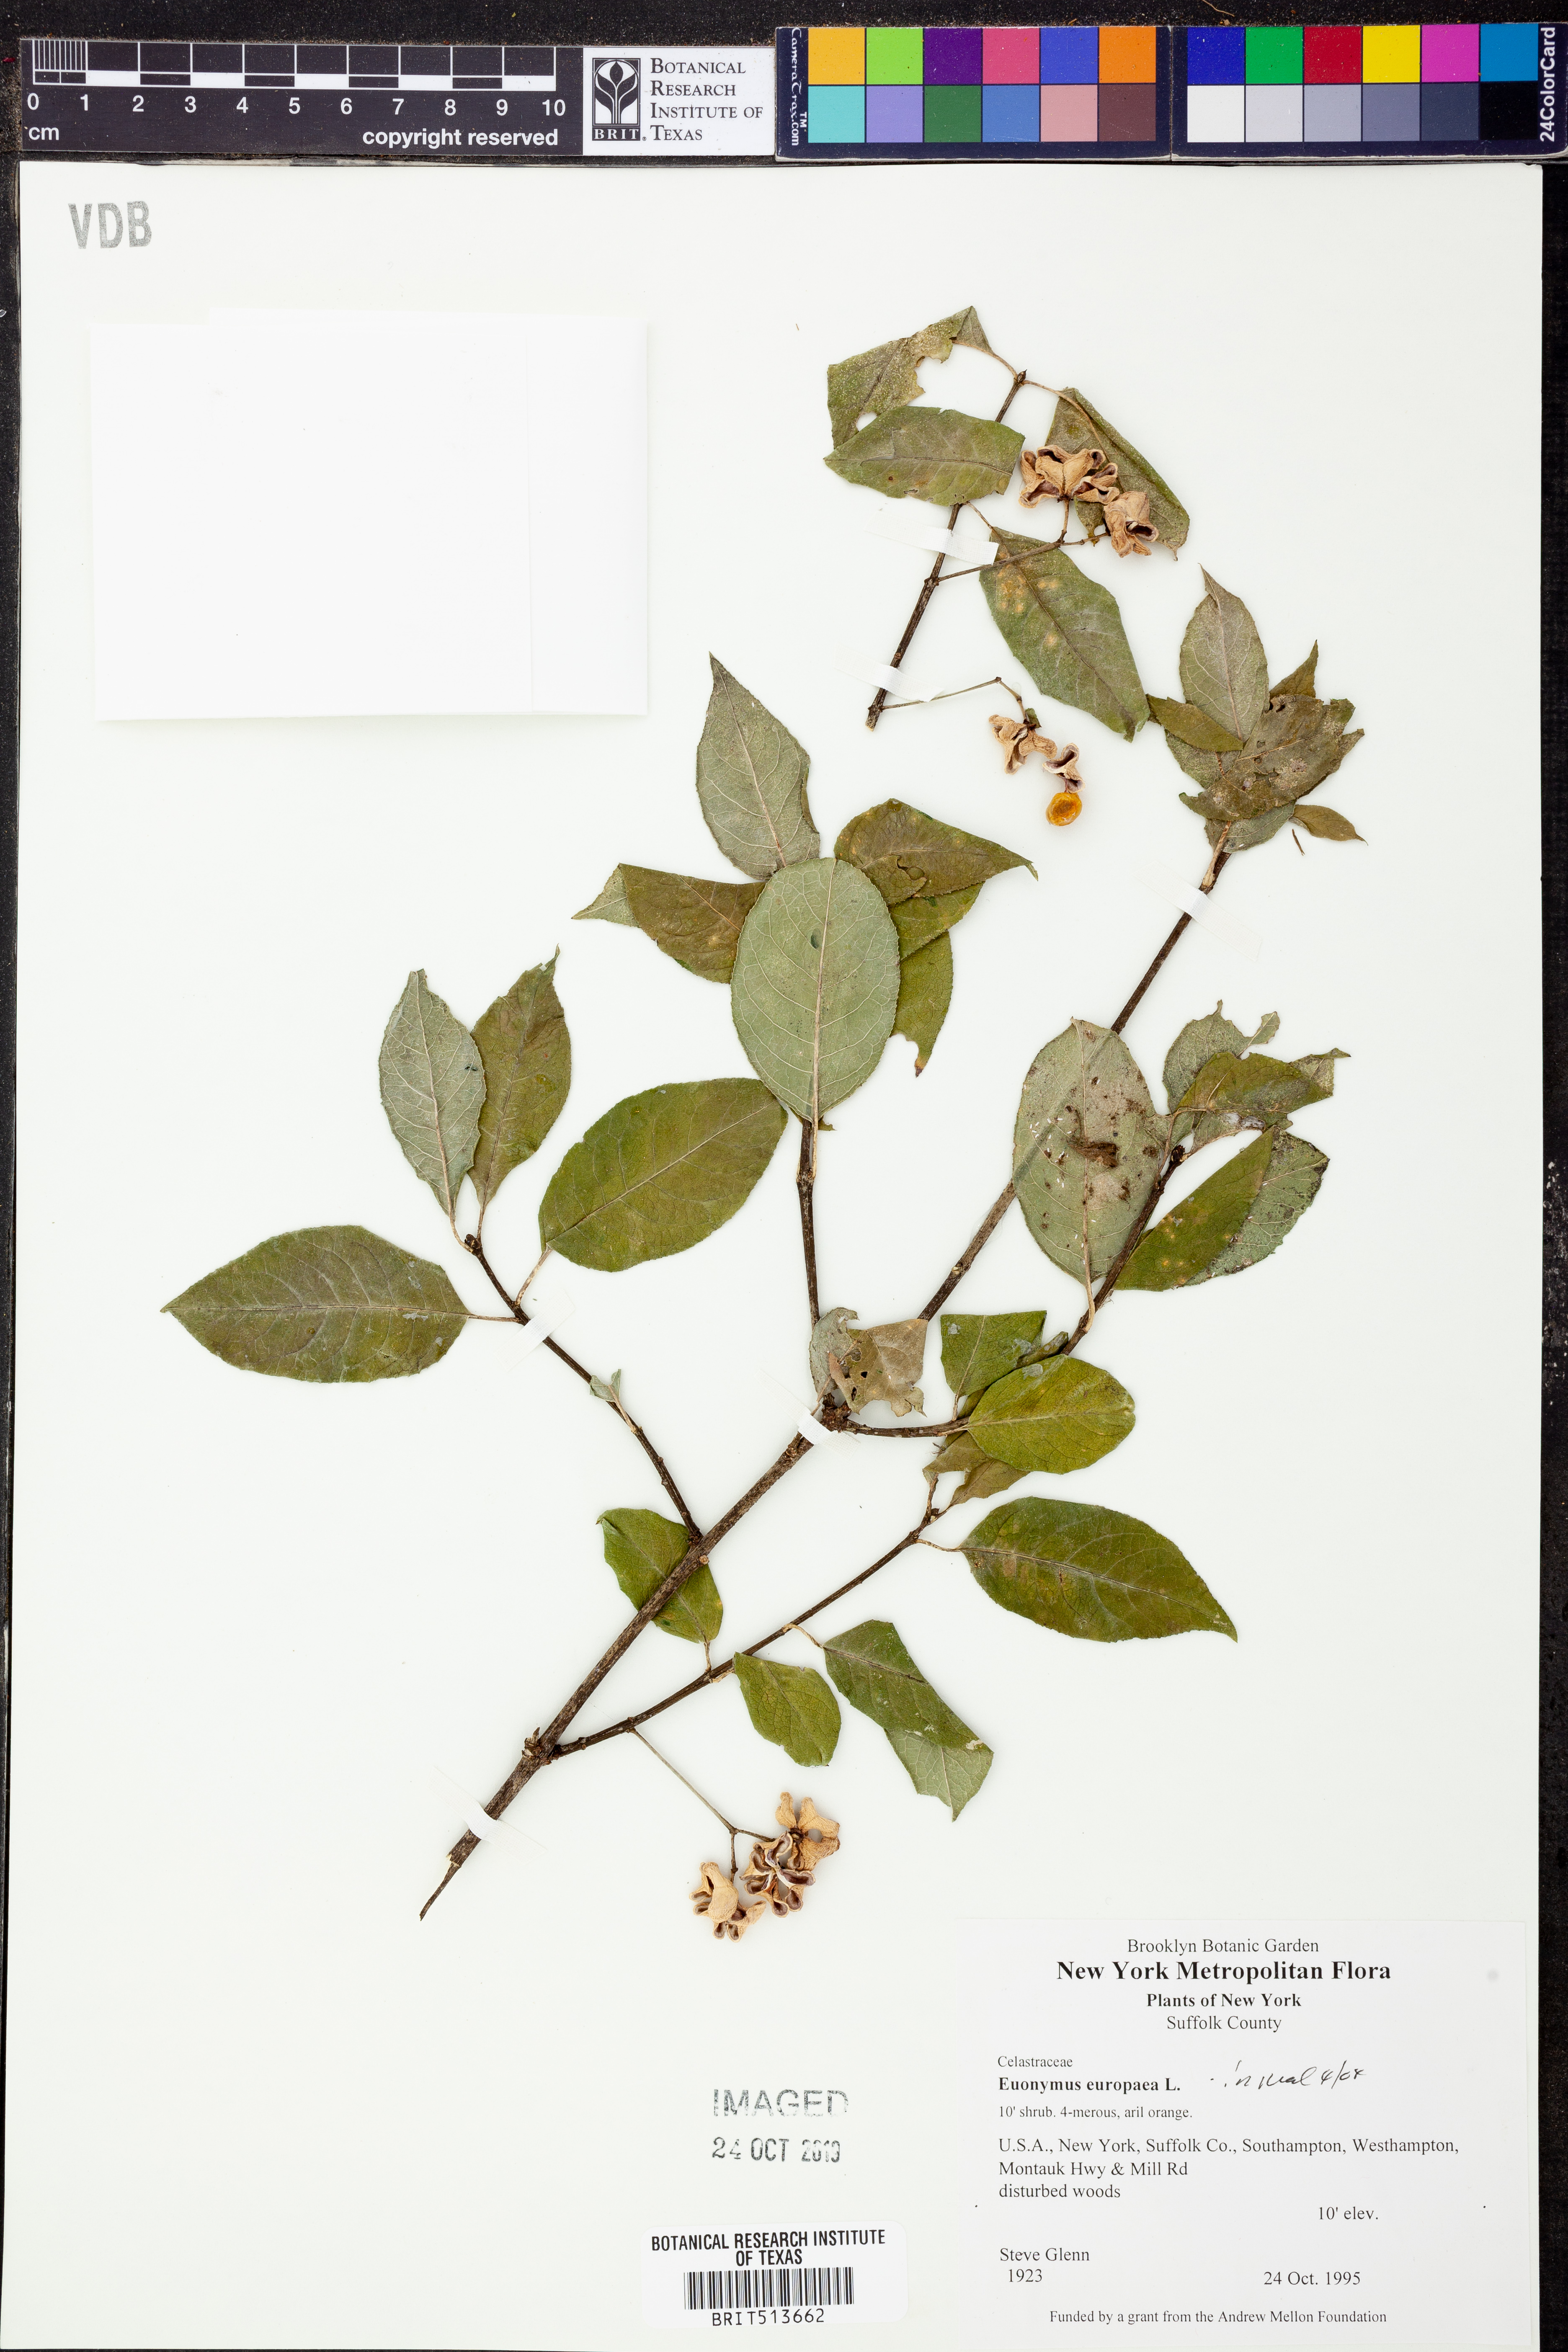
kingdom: Plantae
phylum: Tracheophyta
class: Magnoliopsida
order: Celastrales
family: Celastraceae
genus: Euonymus
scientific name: Euonymus europaeus
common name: Spindle
